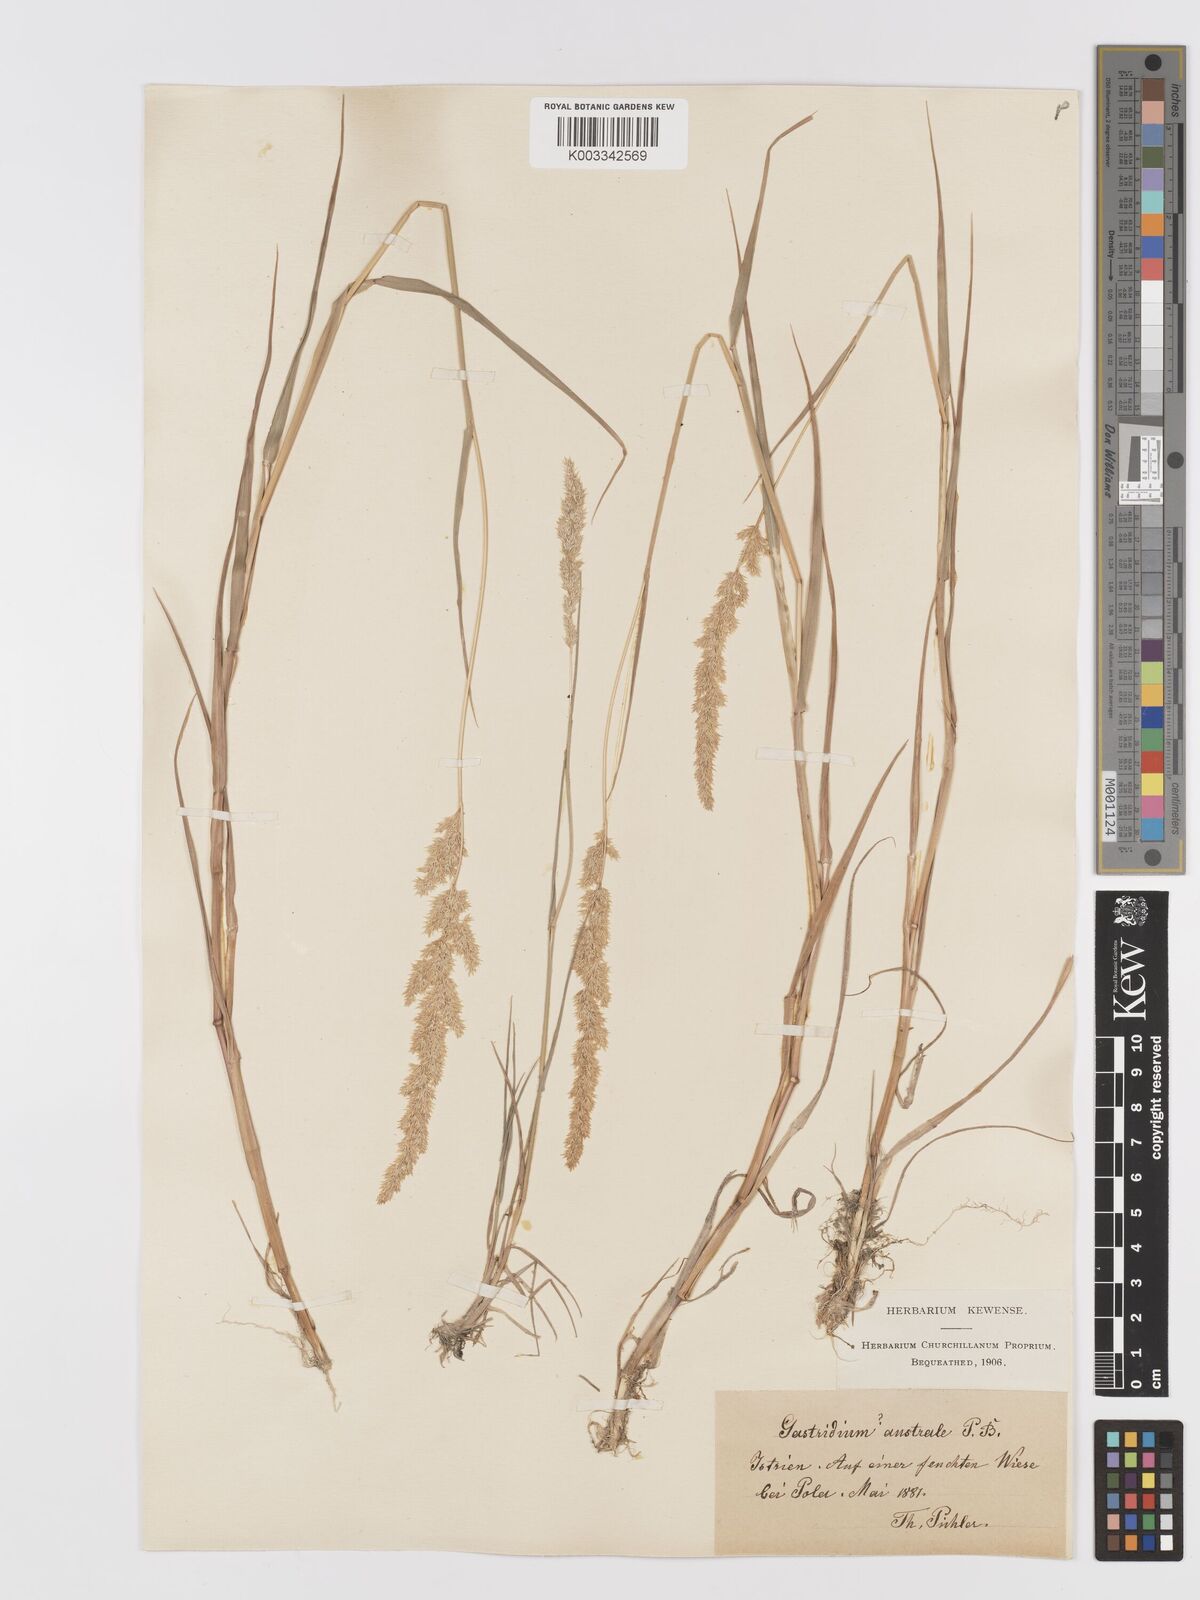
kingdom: Plantae
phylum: Tracheophyta
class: Liliopsida
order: Poales
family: Poaceae
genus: Agrostis
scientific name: Agrostis
